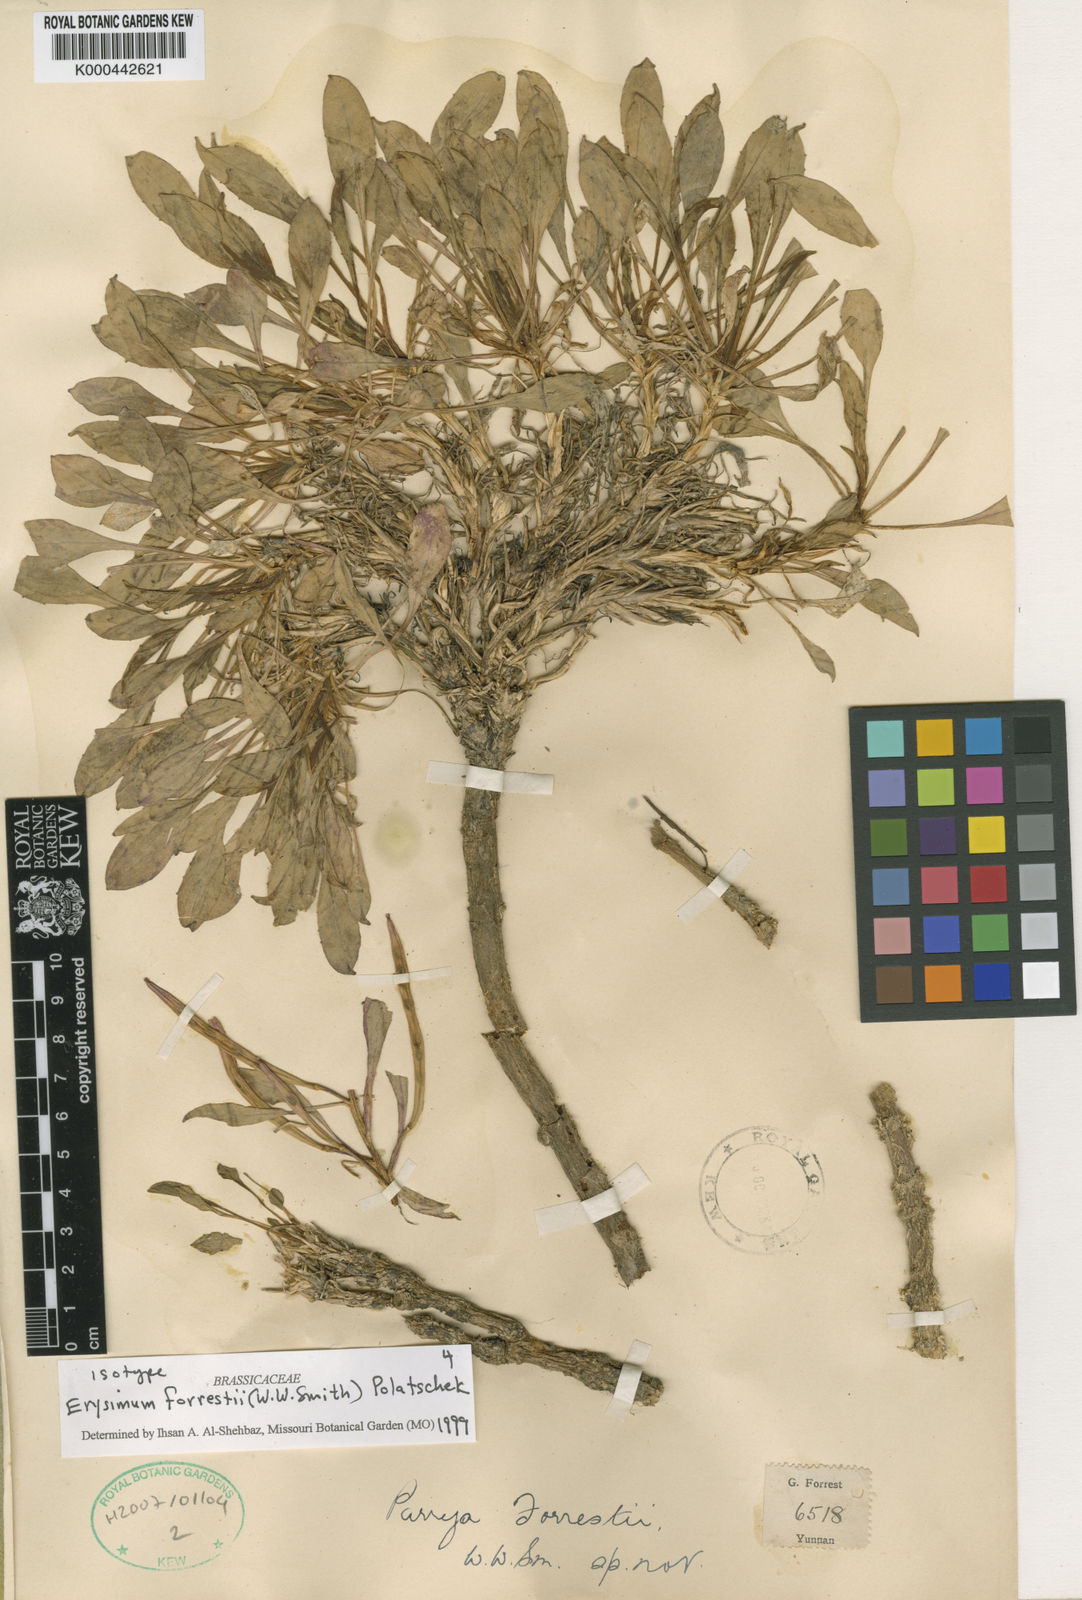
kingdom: Plantae
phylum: Tracheophyta
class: Magnoliopsida
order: Brassicales
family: Brassicaceae
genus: Erysimum
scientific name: Erysimum forrestii
